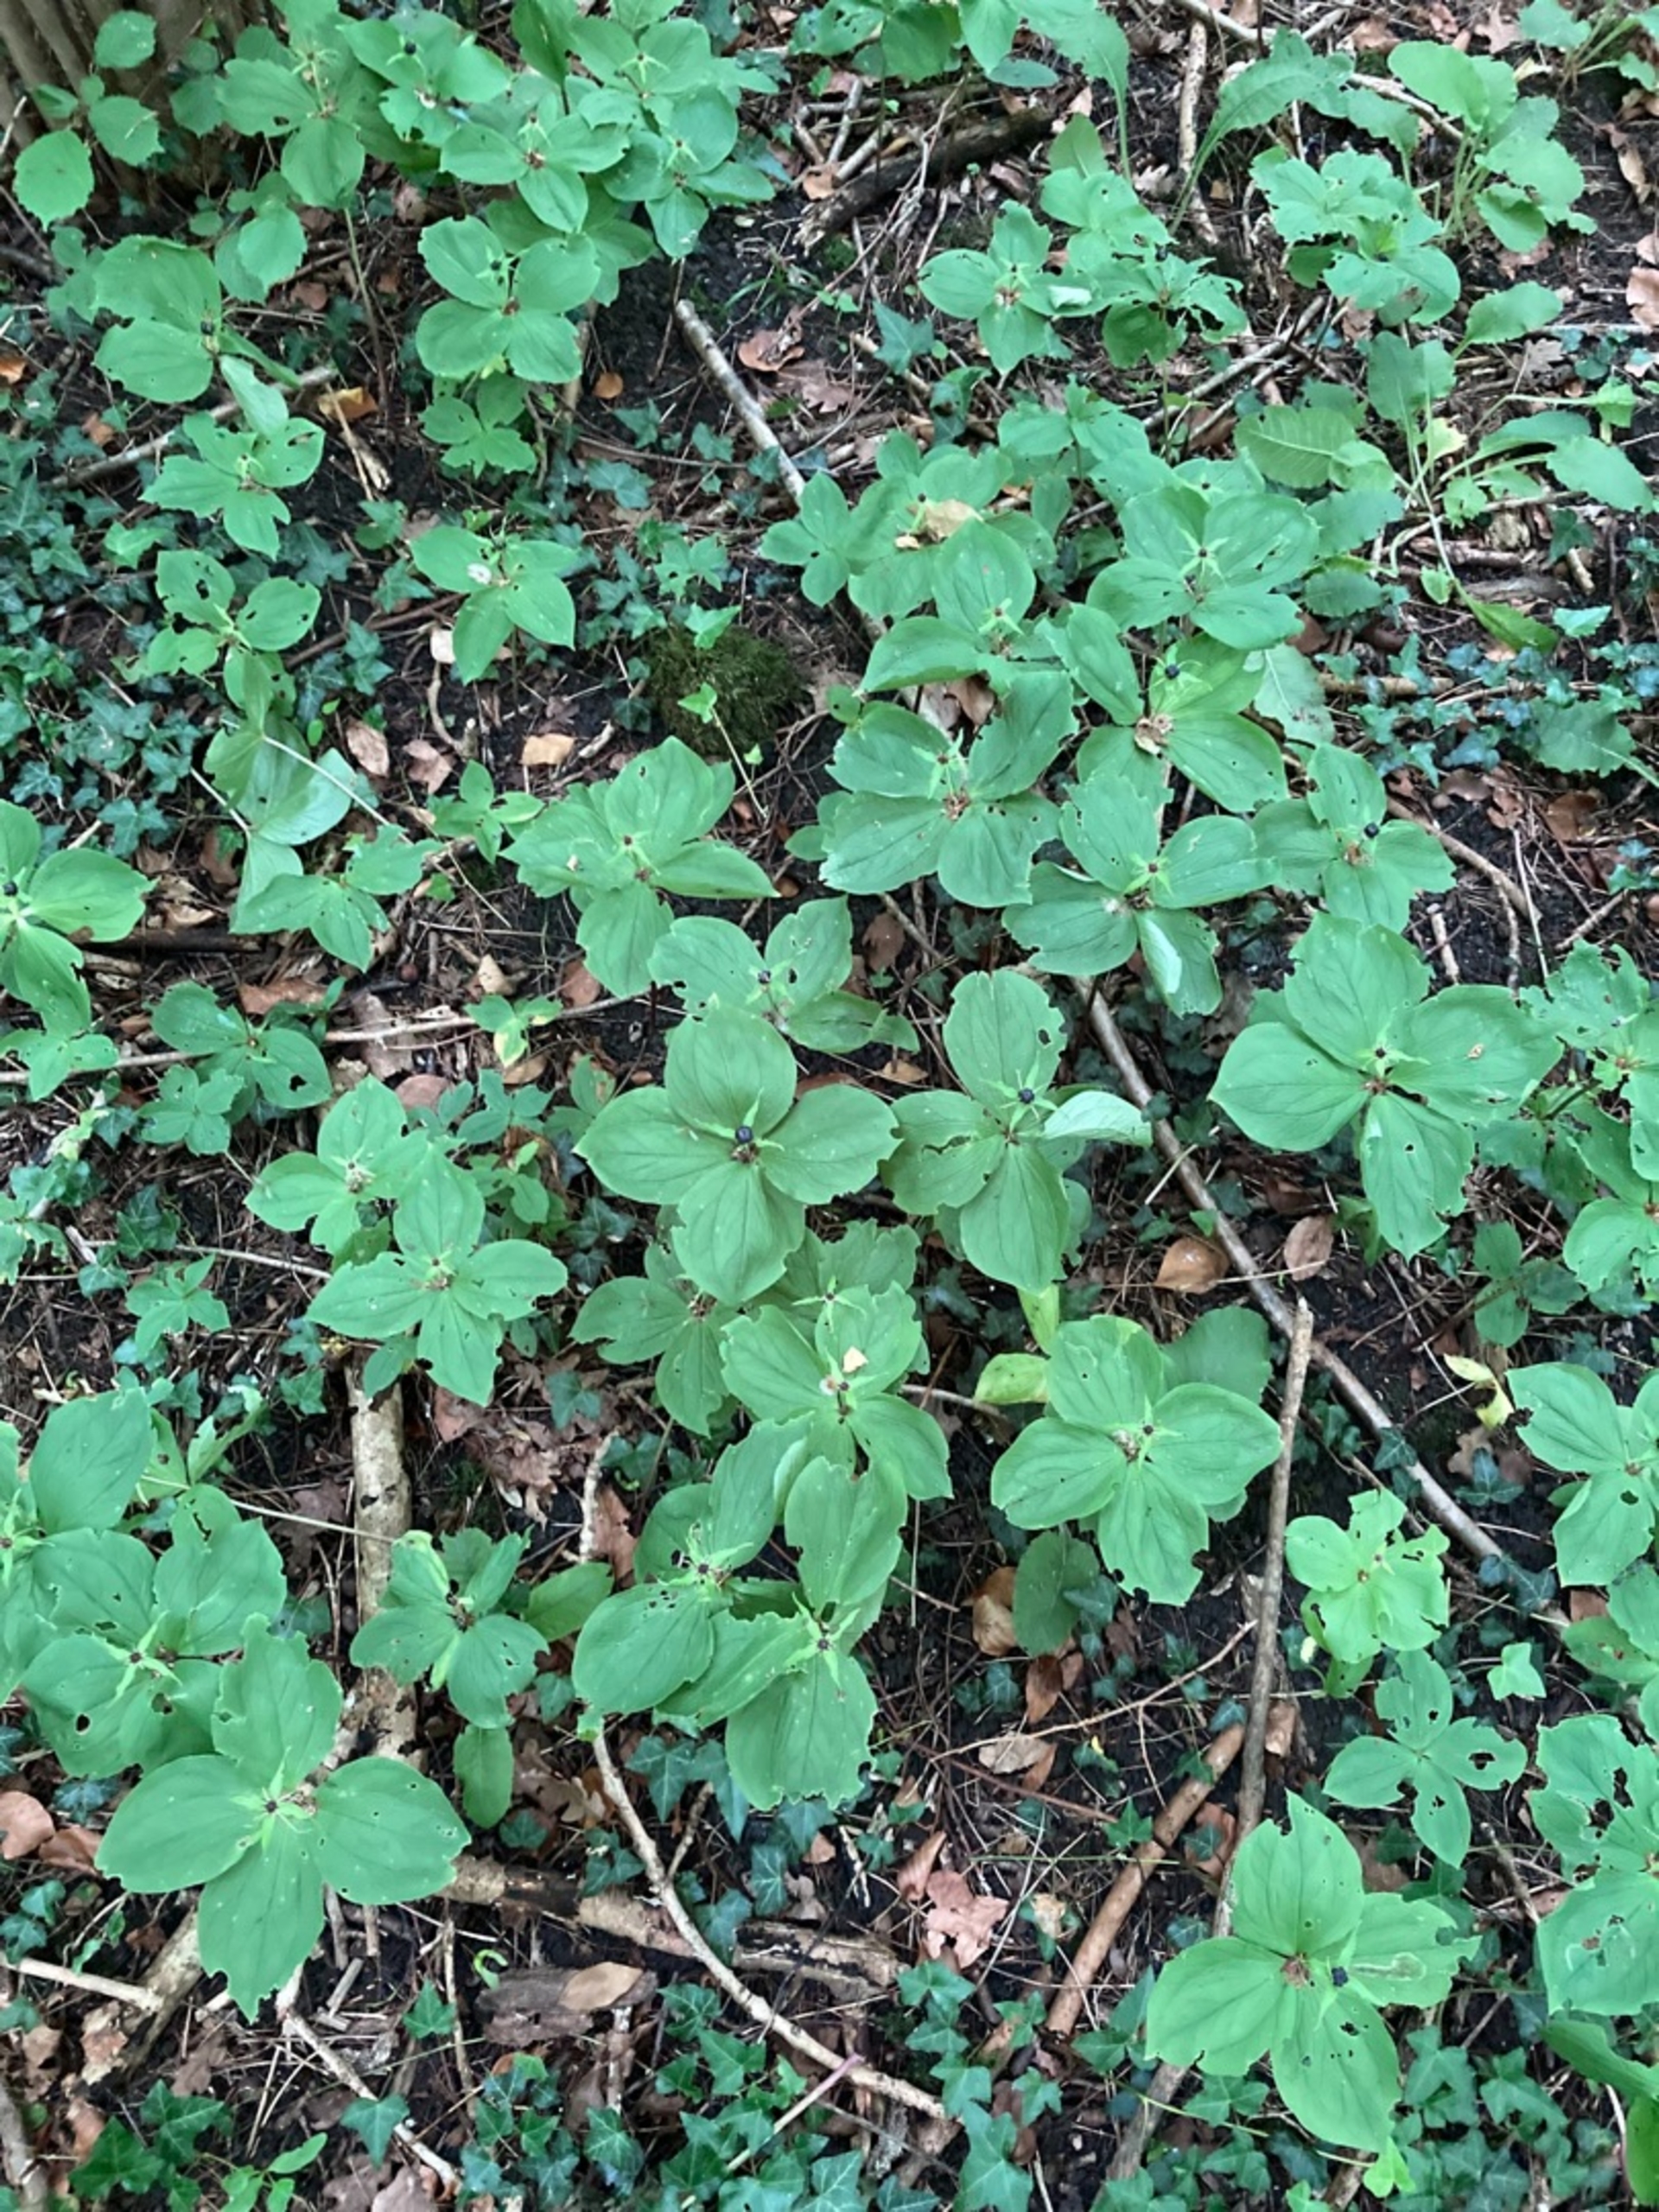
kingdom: Plantae
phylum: Tracheophyta
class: Liliopsida
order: Liliales
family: Melanthiaceae
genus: Paris
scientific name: Paris quadrifolia
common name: Firblad
